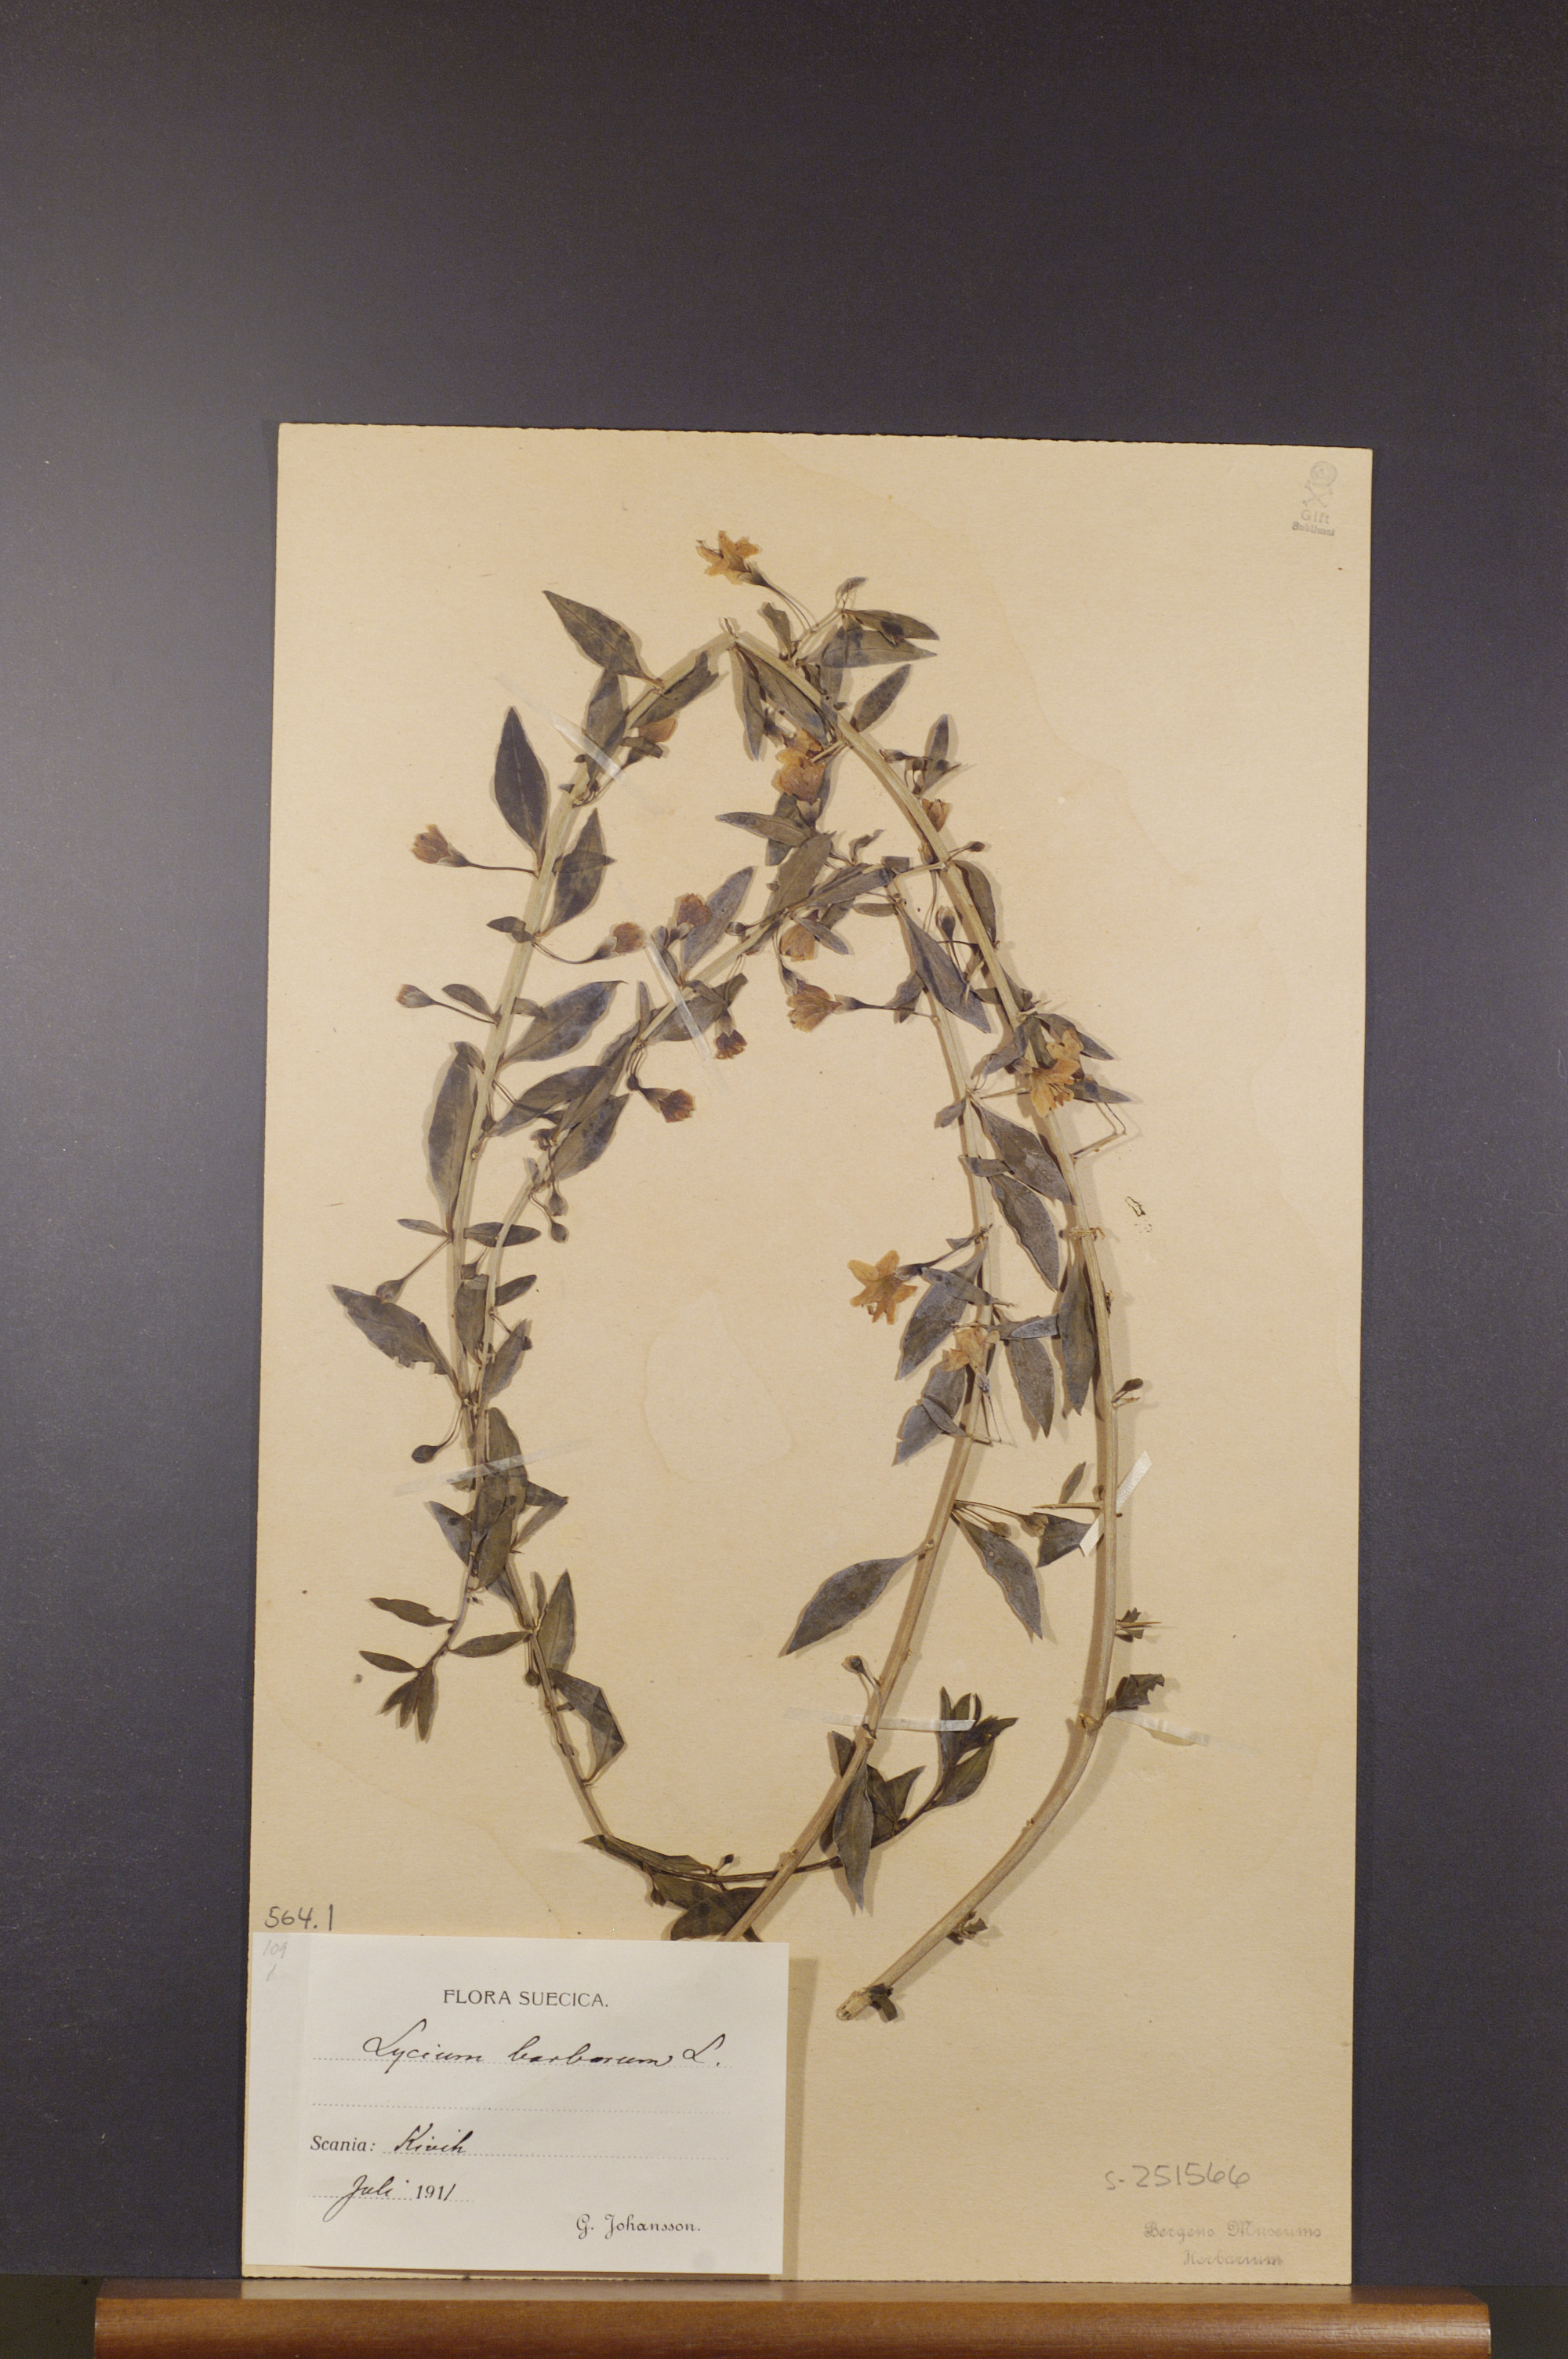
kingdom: Plantae
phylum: Tracheophyta
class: Magnoliopsida
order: Solanales
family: Solanaceae
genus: Lycium
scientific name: Lycium barbarum
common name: Duke of argyll's teaplant
